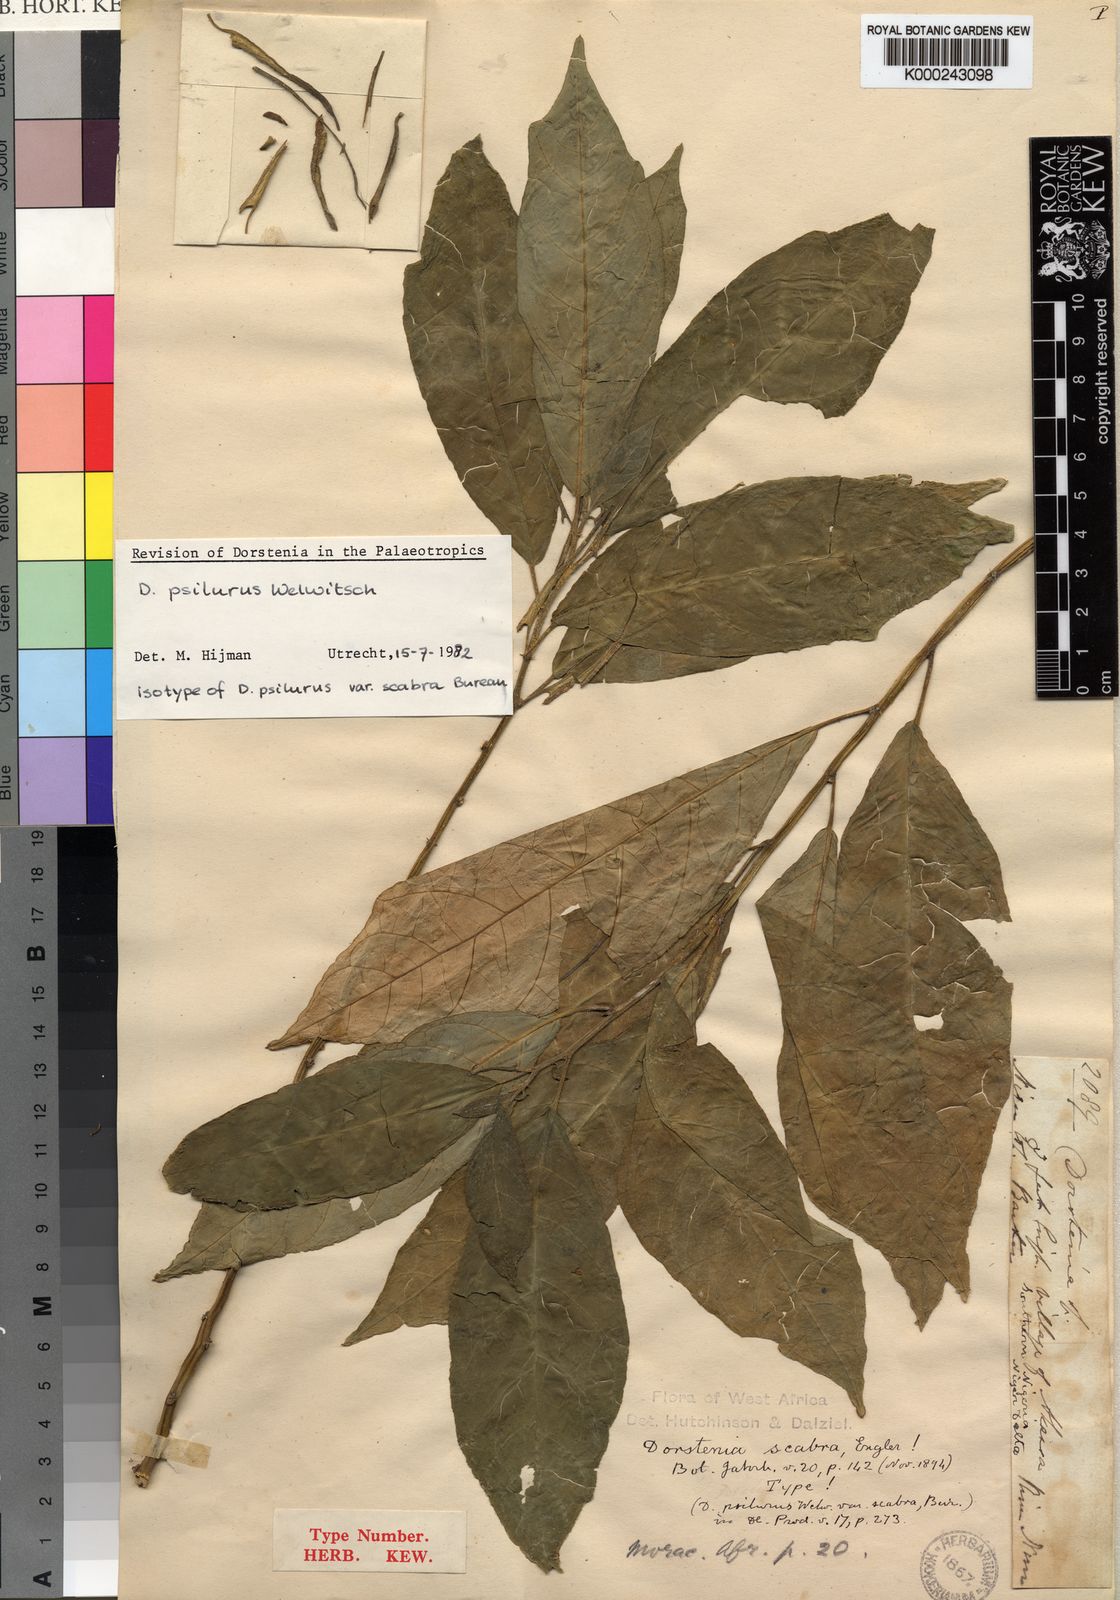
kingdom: Plantae
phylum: Tracheophyta
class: Magnoliopsida
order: Rosales
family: Moraceae
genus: Dorstenia
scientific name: Dorstenia psilurus
